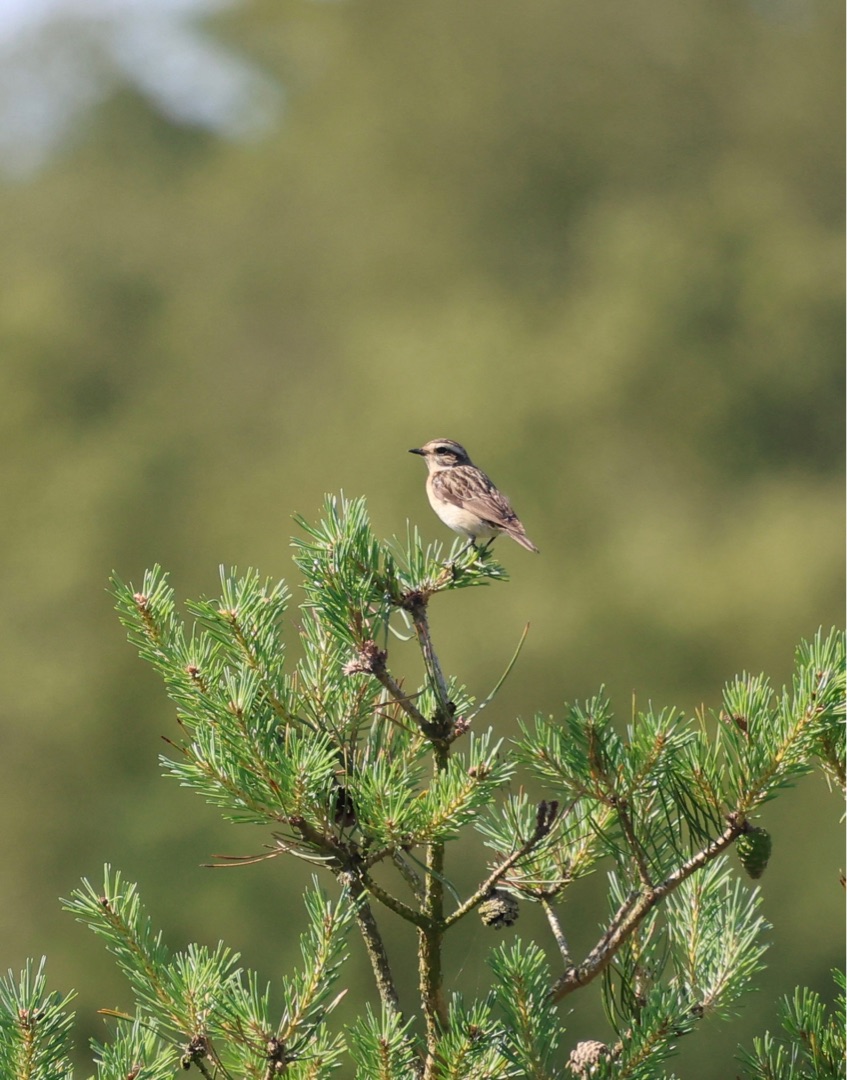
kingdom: Animalia
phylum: Chordata
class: Aves
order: Passeriformes
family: Muscicapidae
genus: Saxicola
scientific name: Saxicola rubetra
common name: Bynkefugl
